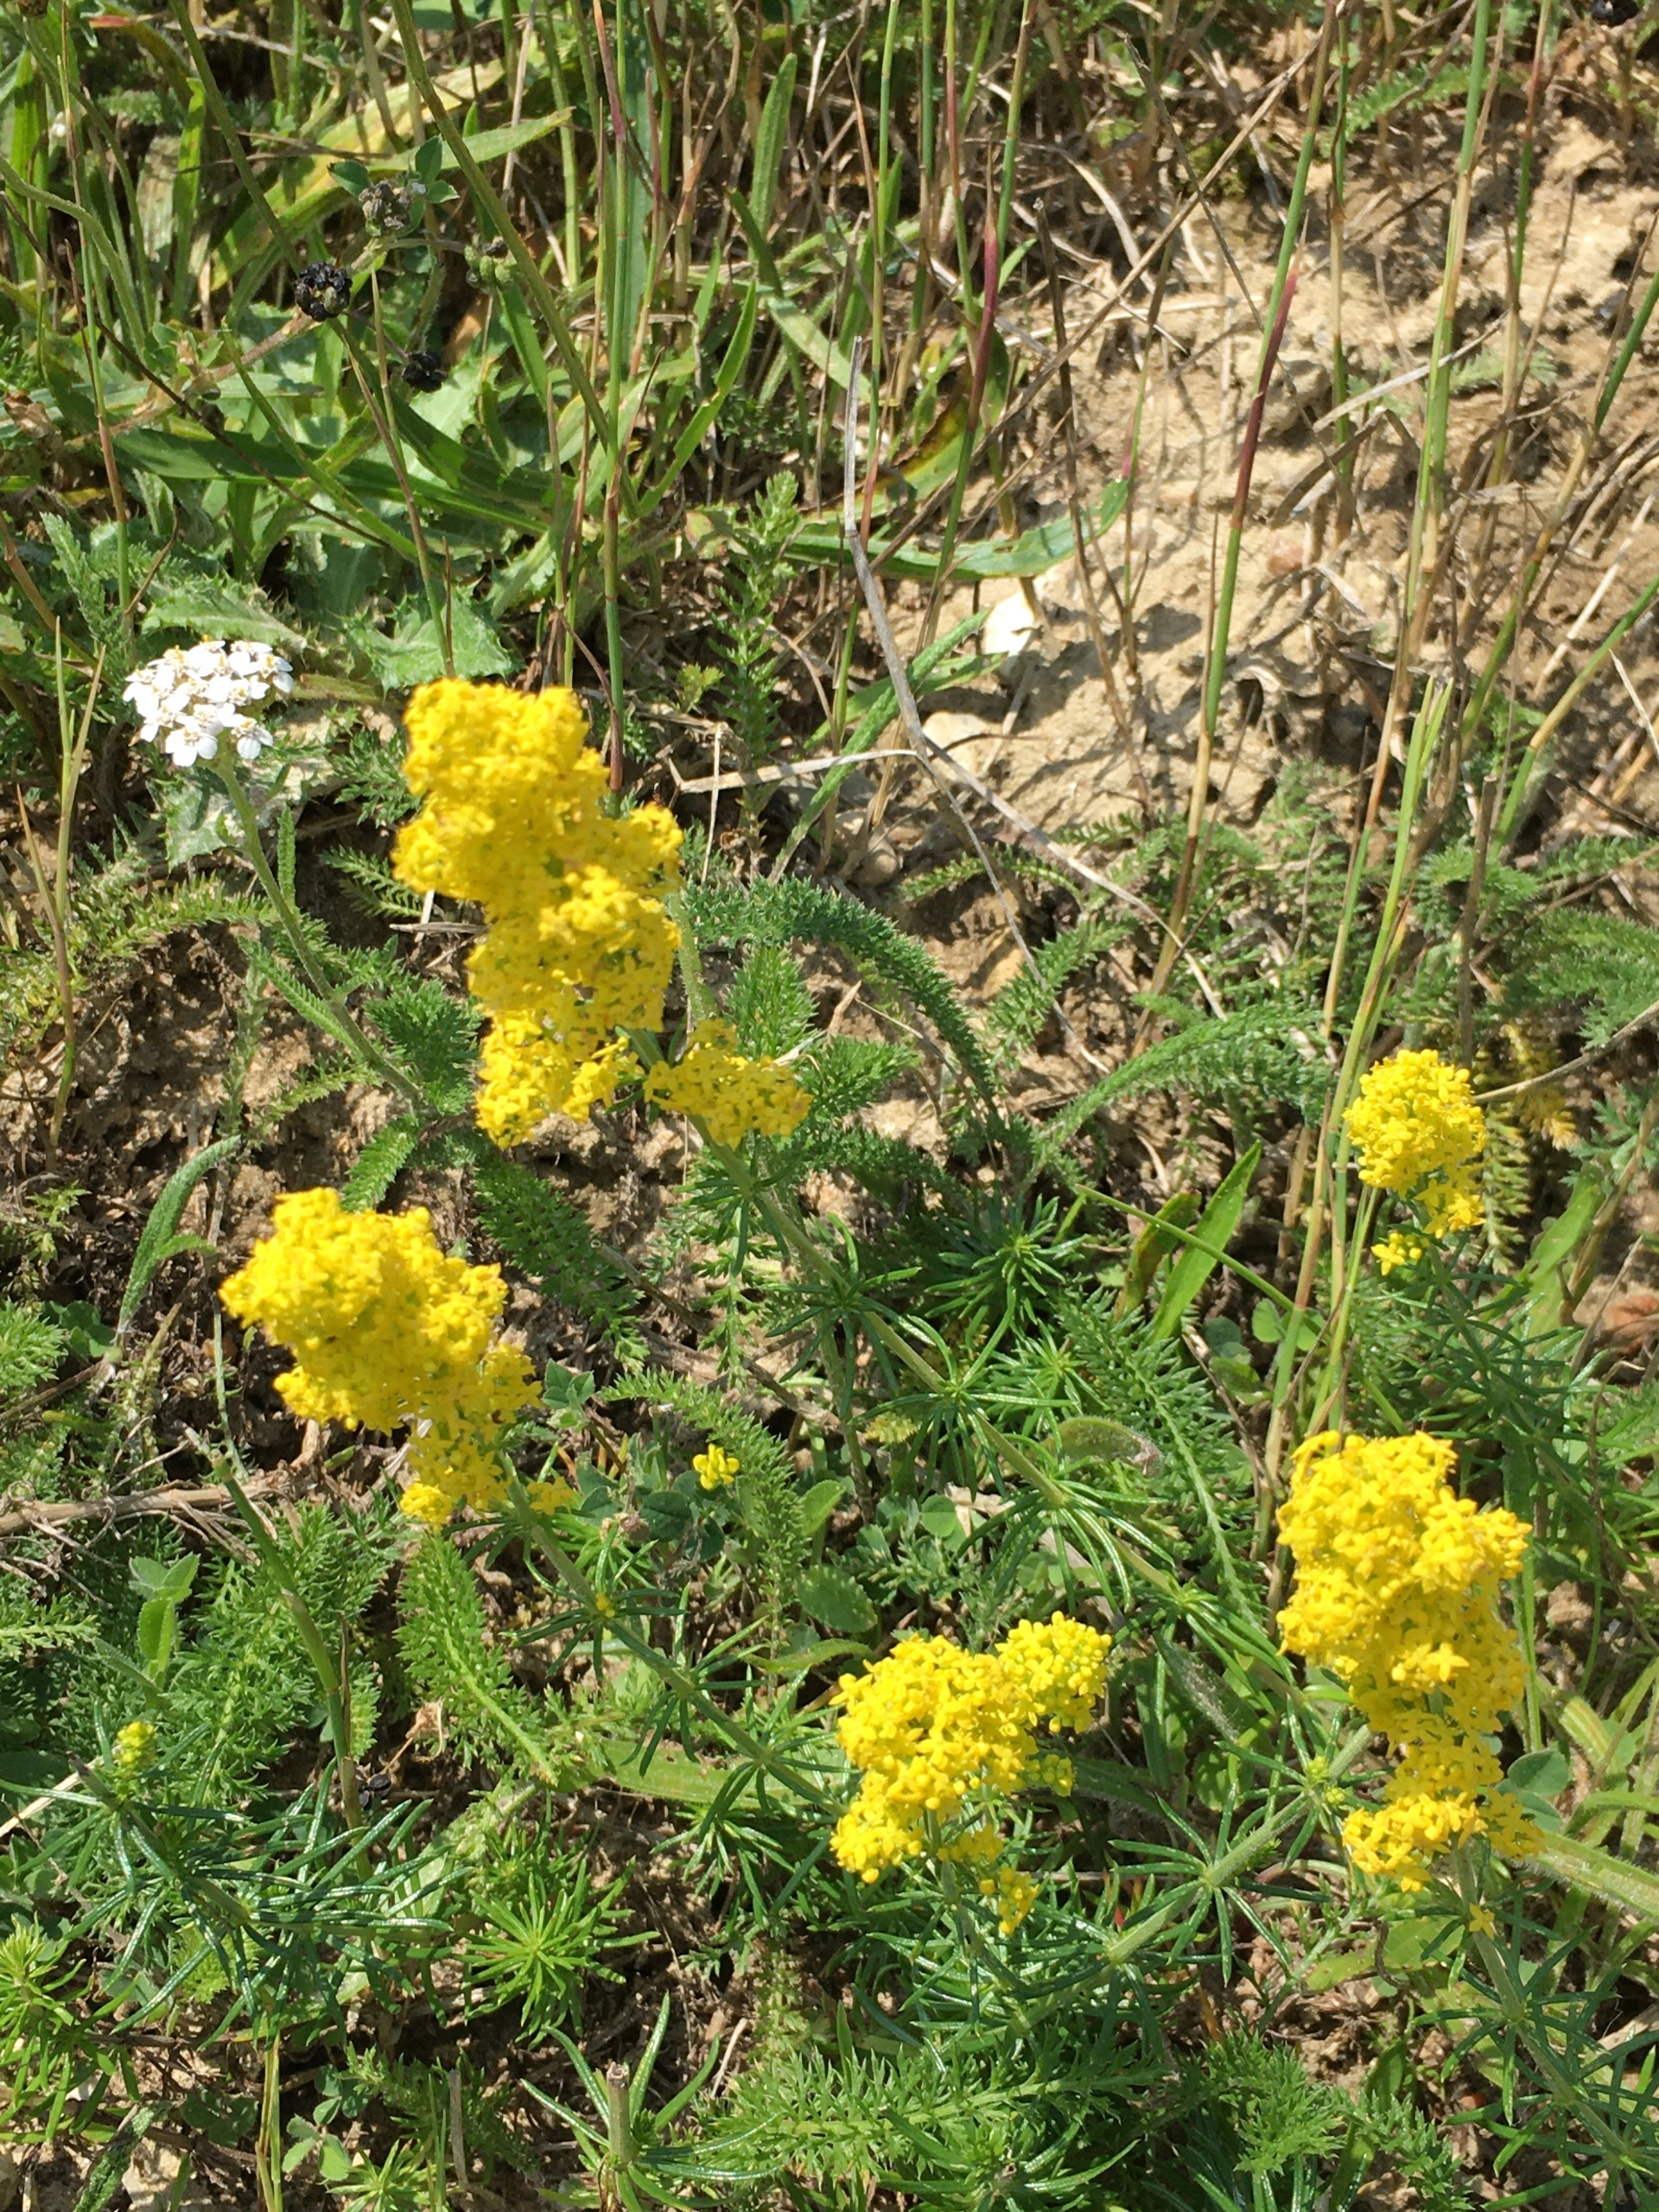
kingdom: Plantae
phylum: Tracheophyta
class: Magnoliopsida
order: Gentianales
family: Rubiaceae
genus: Galium
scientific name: Galium verum
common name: Gul snerre
